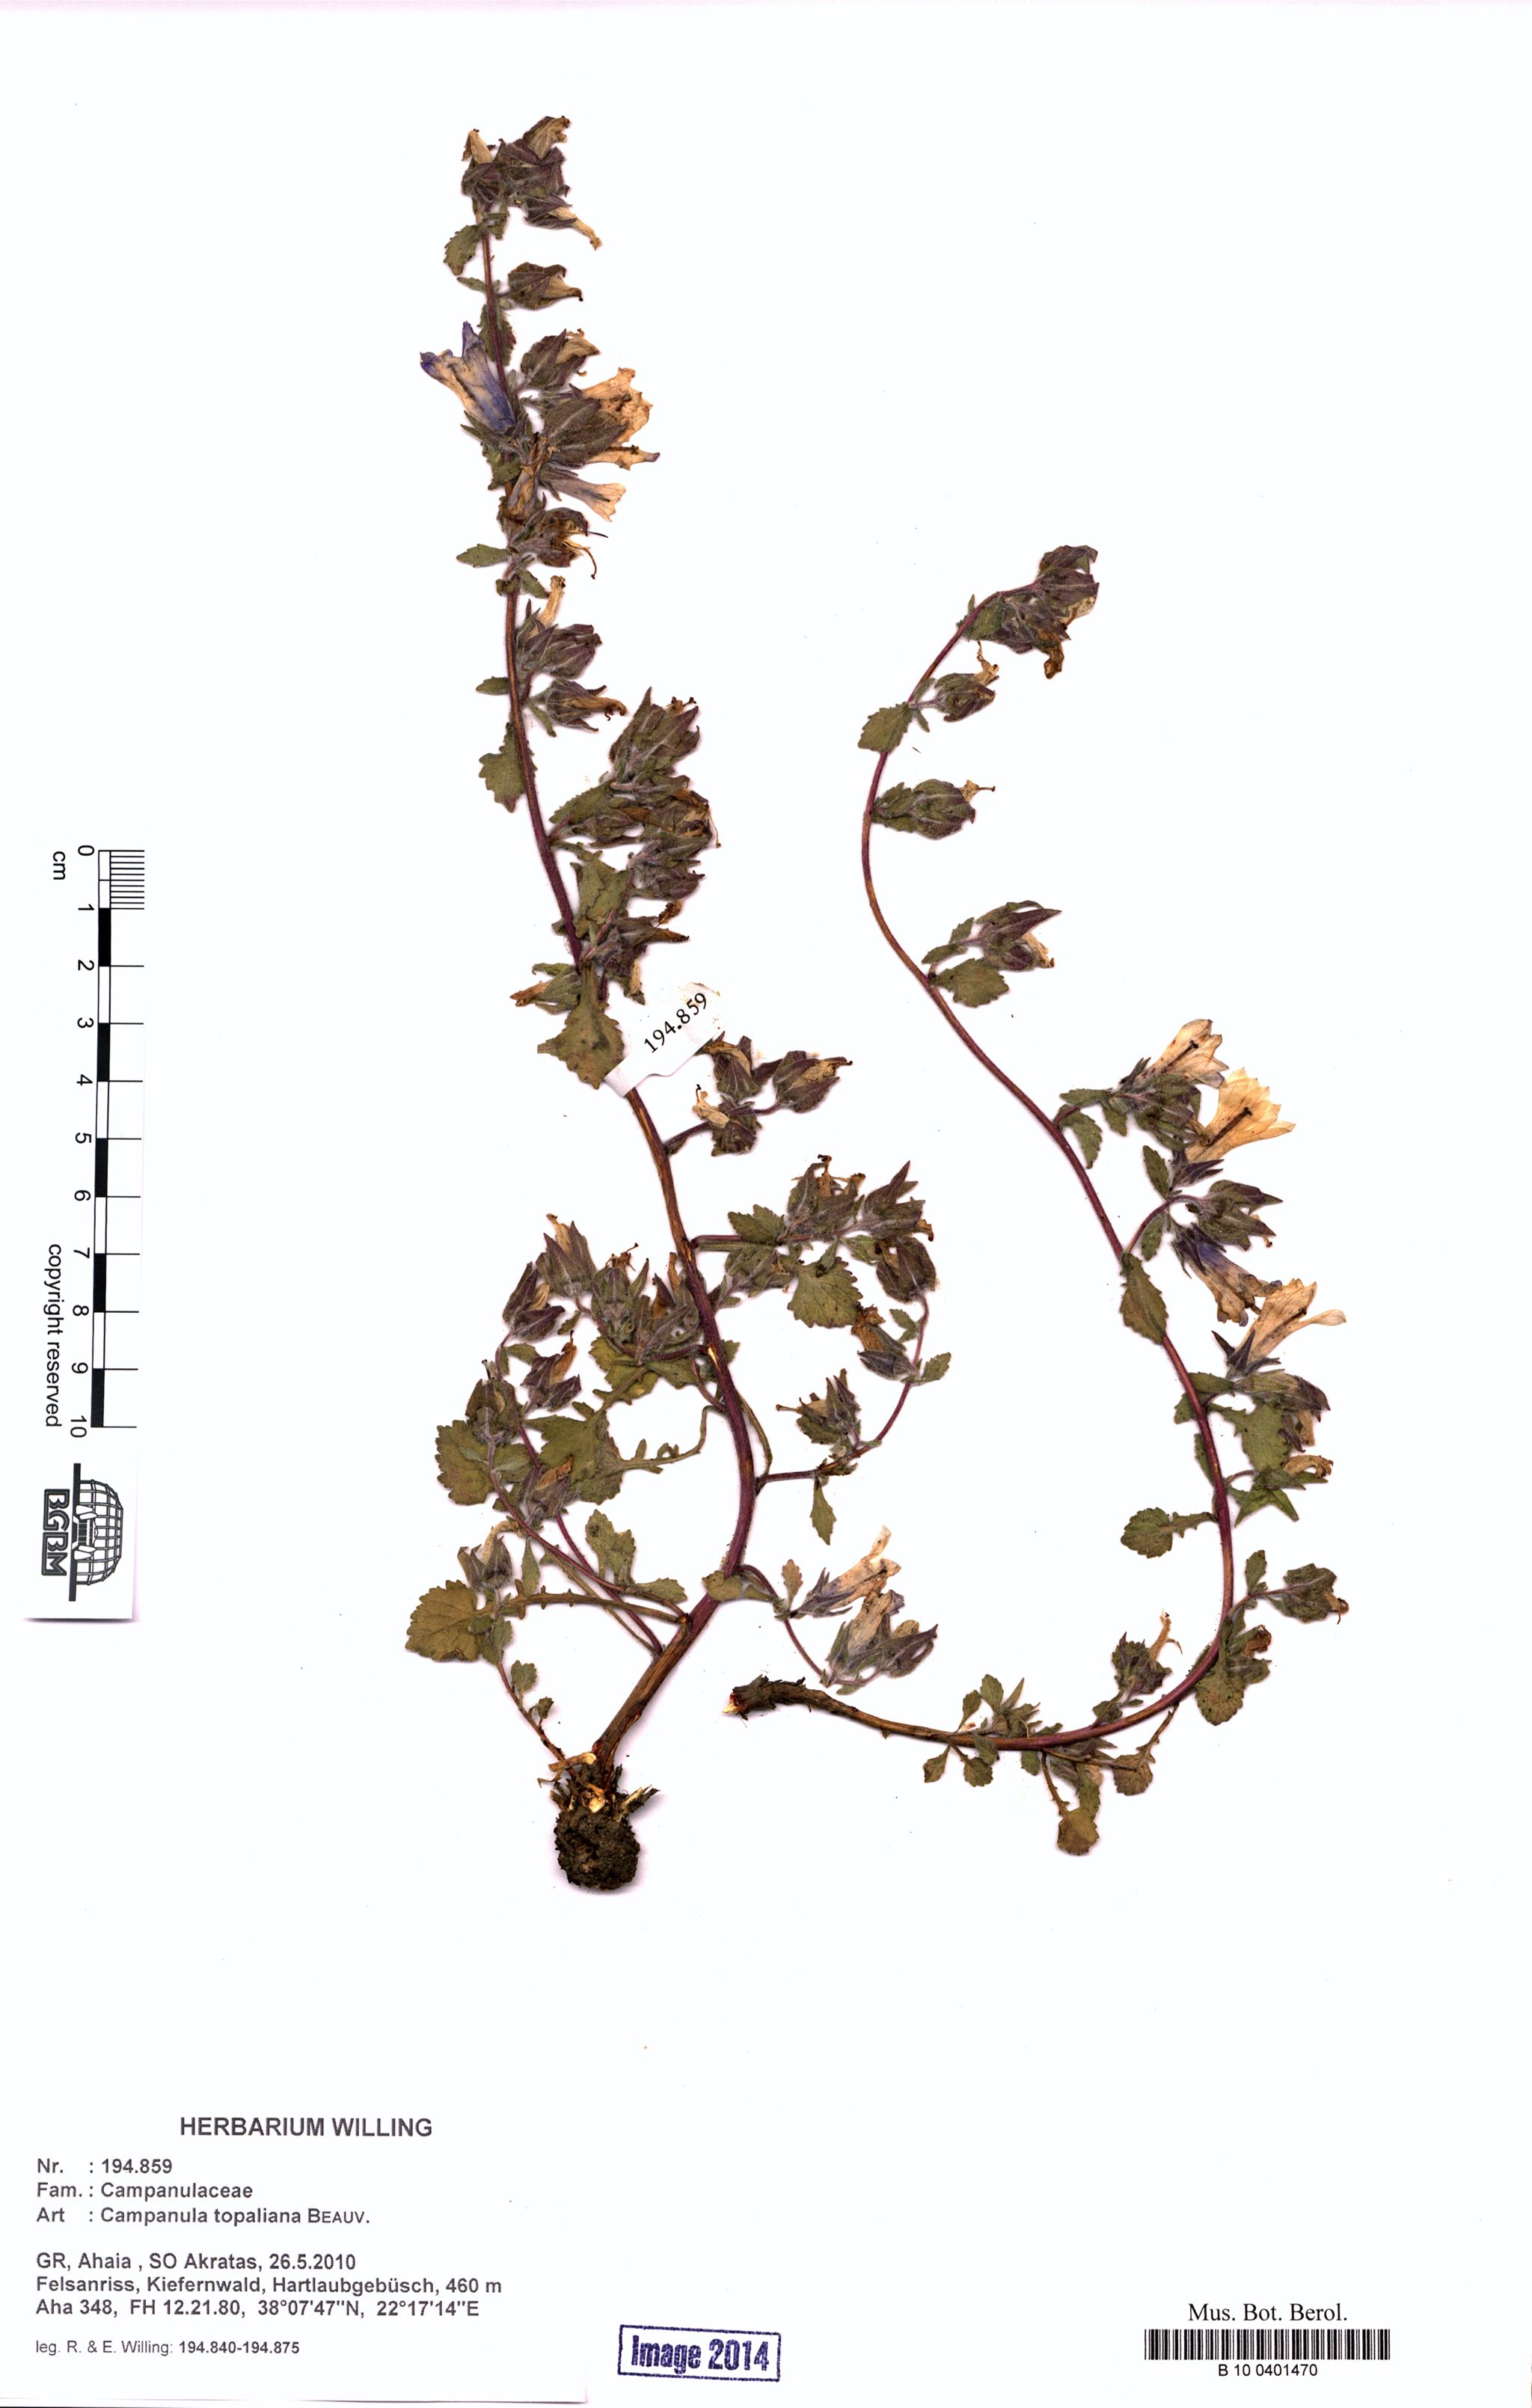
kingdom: Plantae
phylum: Tracheophyta
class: Magnoliopsida
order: Asterales
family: Campanulaceae
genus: Campanula
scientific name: Campanula topaliana
